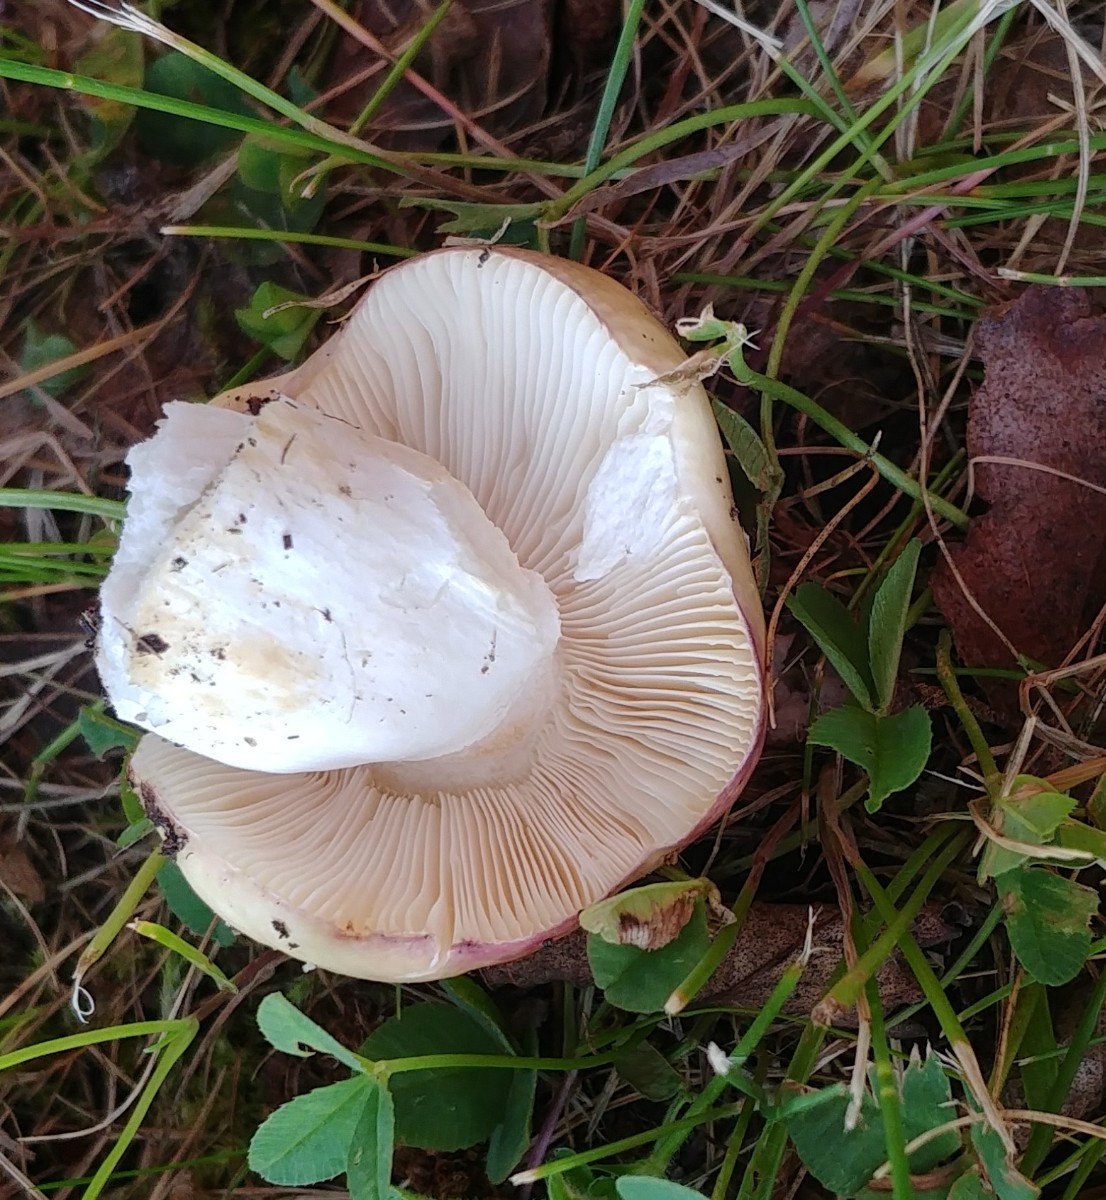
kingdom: Fungi
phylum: Basidiomycota
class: Agaricomycetes
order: Russulales
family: Russulaceae
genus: Russula
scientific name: Russula depallens
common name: falmende skørhat
